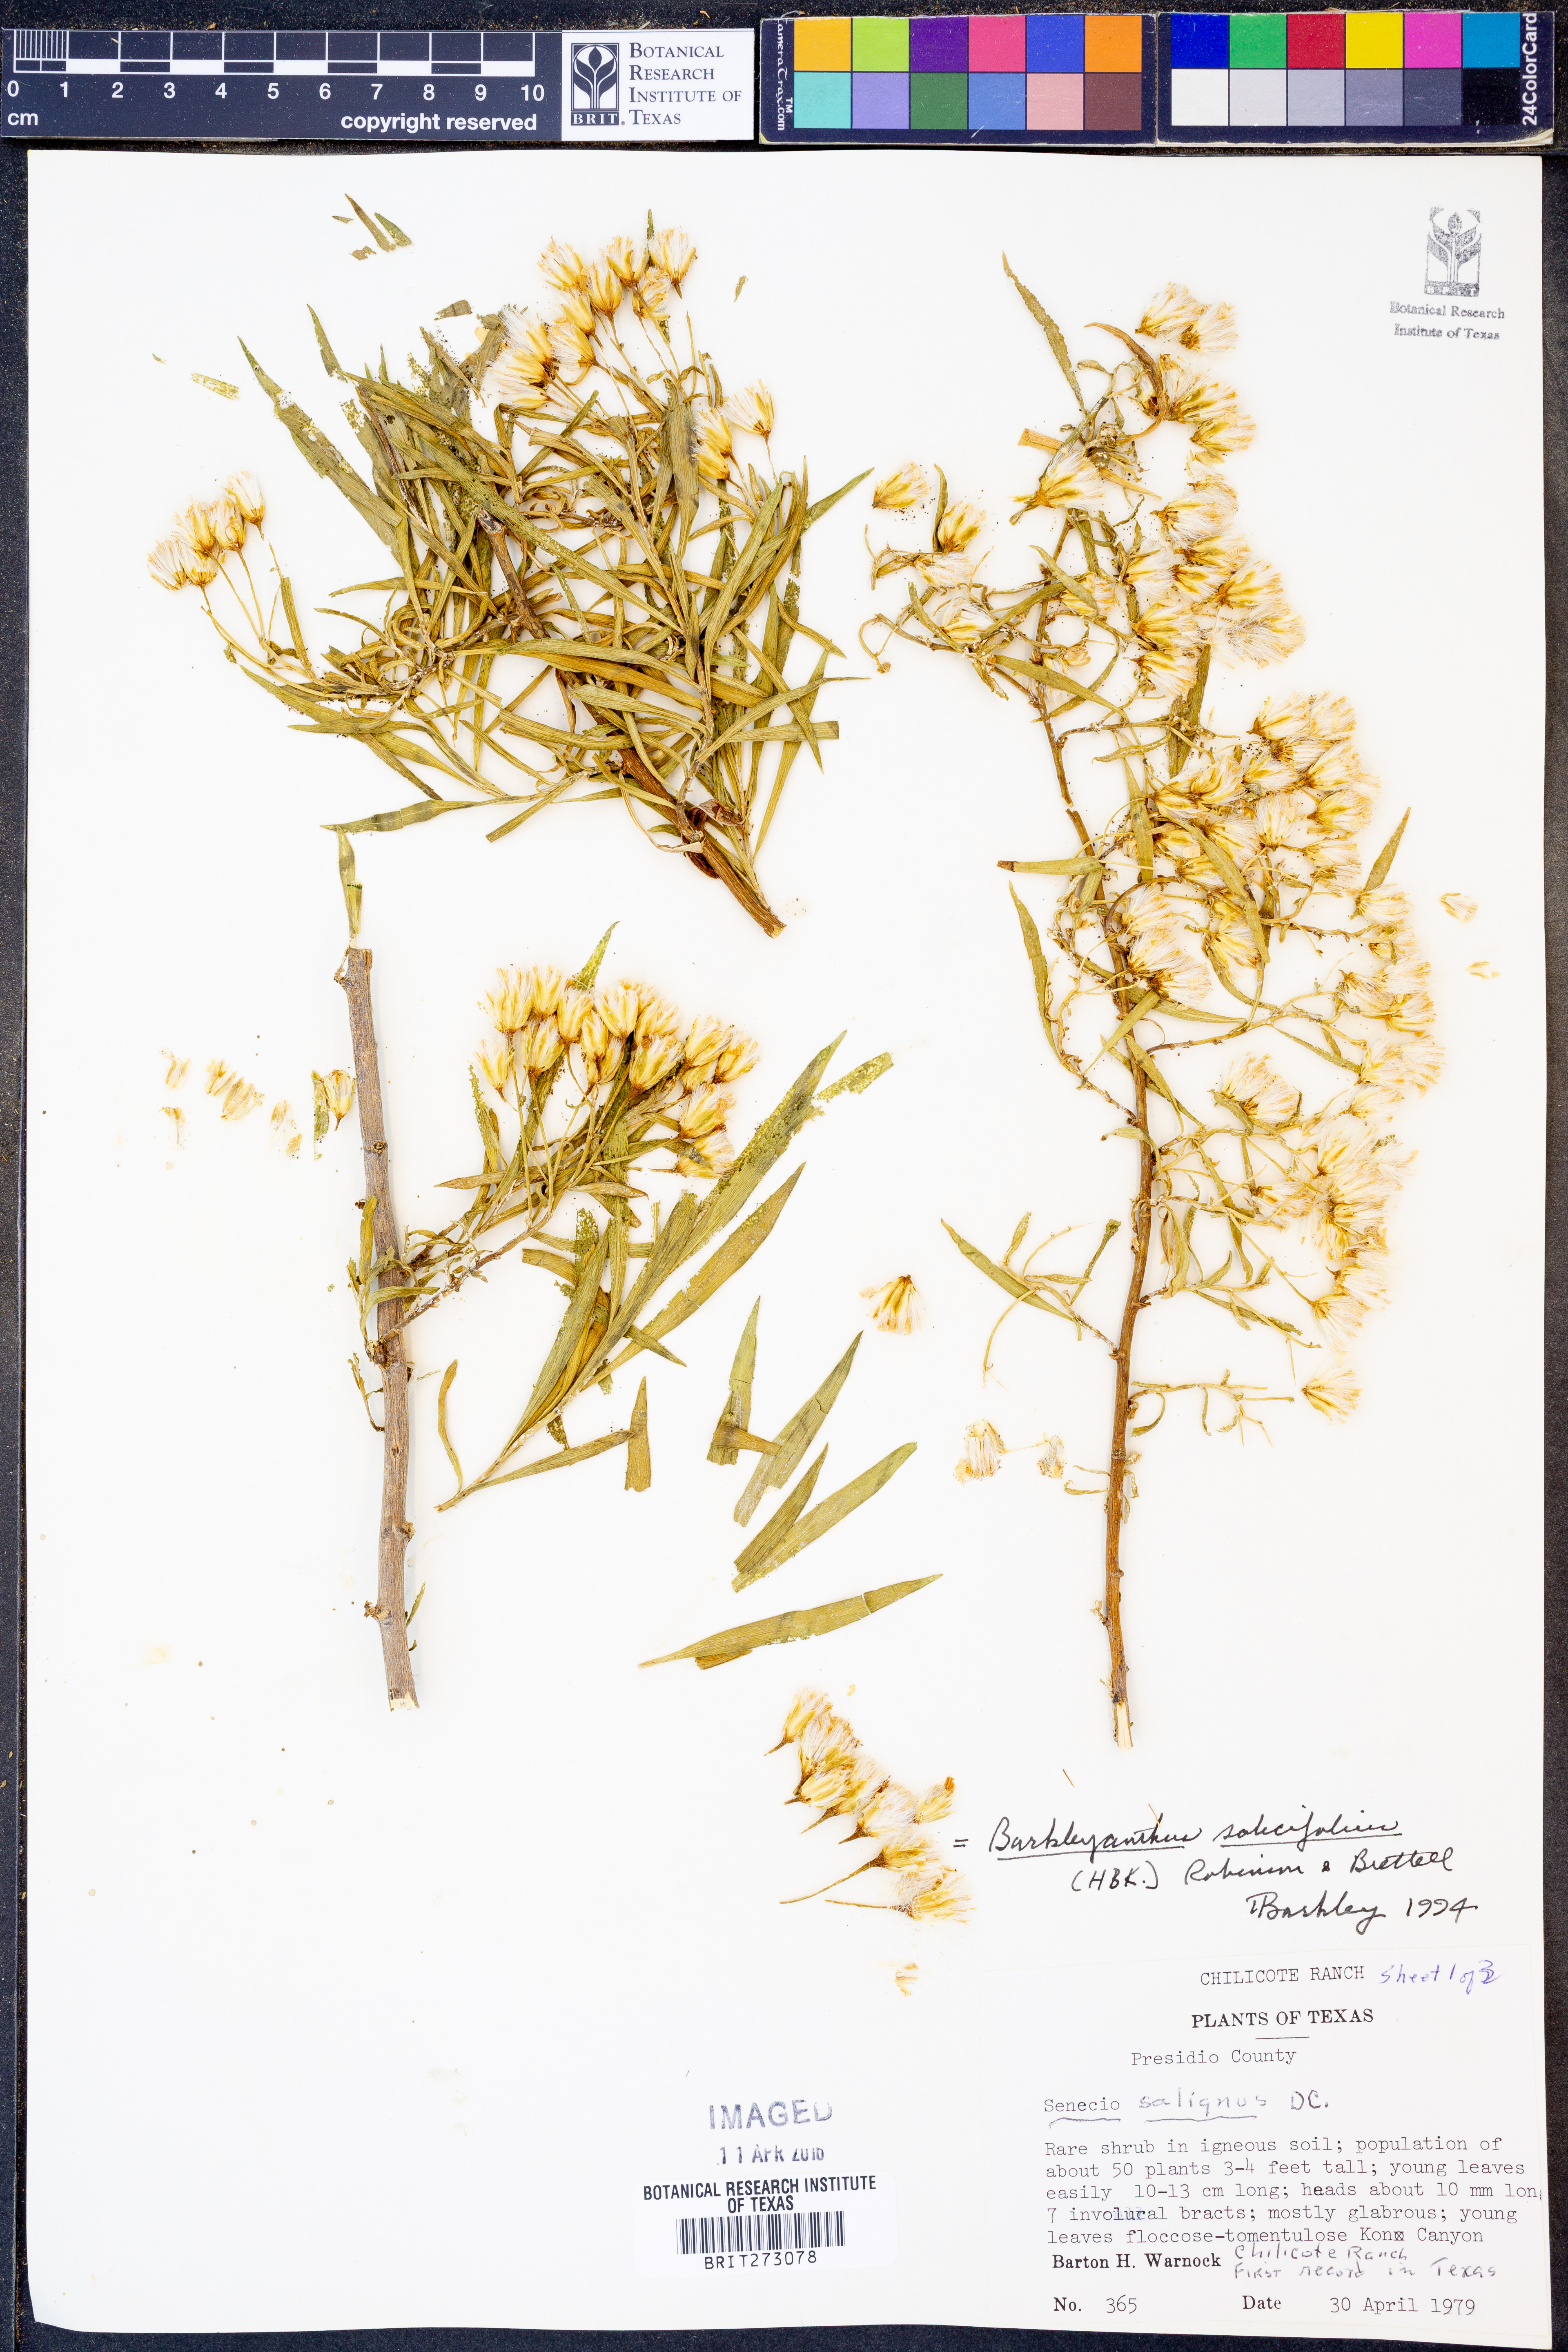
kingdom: Plantae
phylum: Tracheophyta
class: Magnoliopsida
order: Asterales
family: Asteraceae
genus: Barkleyanthus
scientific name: Barkleyanthus salicifolius
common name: Willow ragwort
